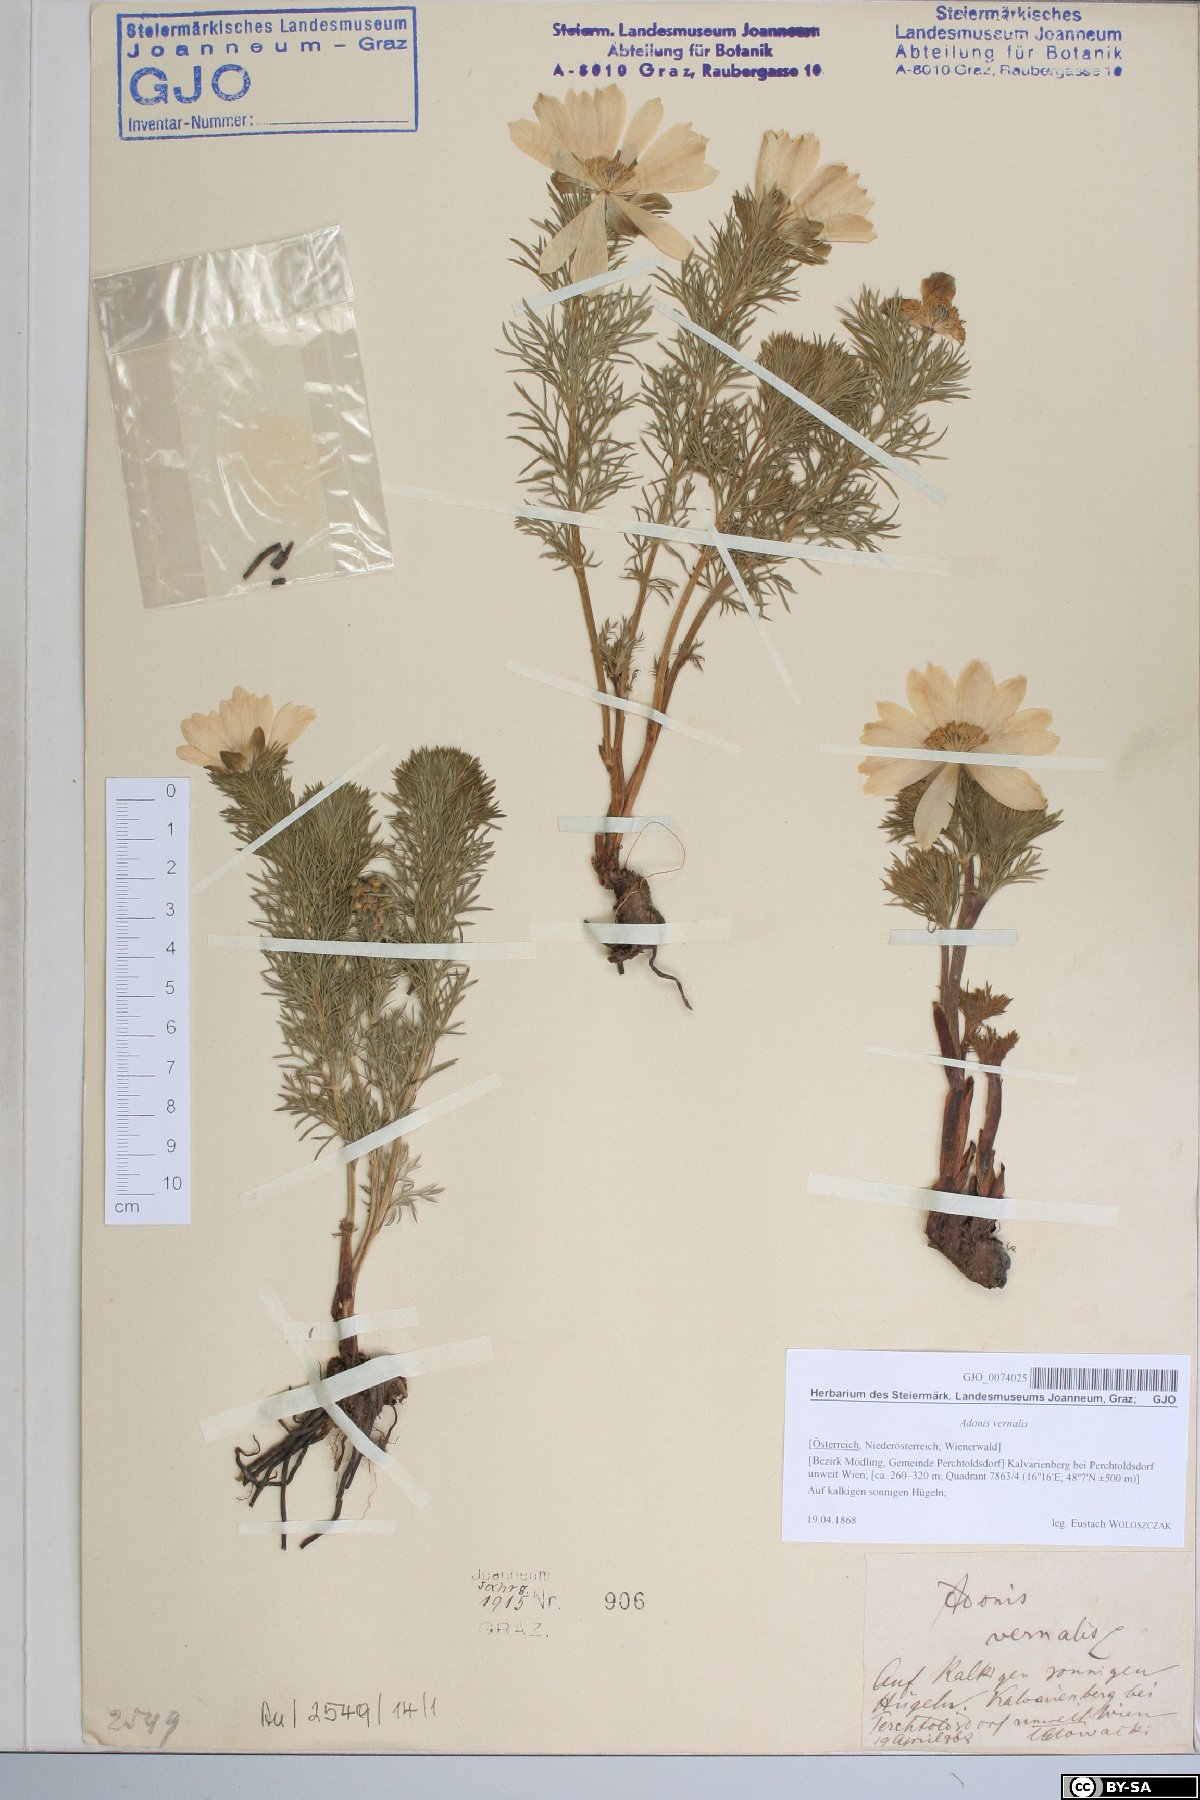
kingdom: Plantae
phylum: Tracheophyta
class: Magnoliopsida
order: Ranunculales
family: Ranunculaceae
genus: Adonis
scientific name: Adonis vernalis
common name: Yellow pheasants-eye
